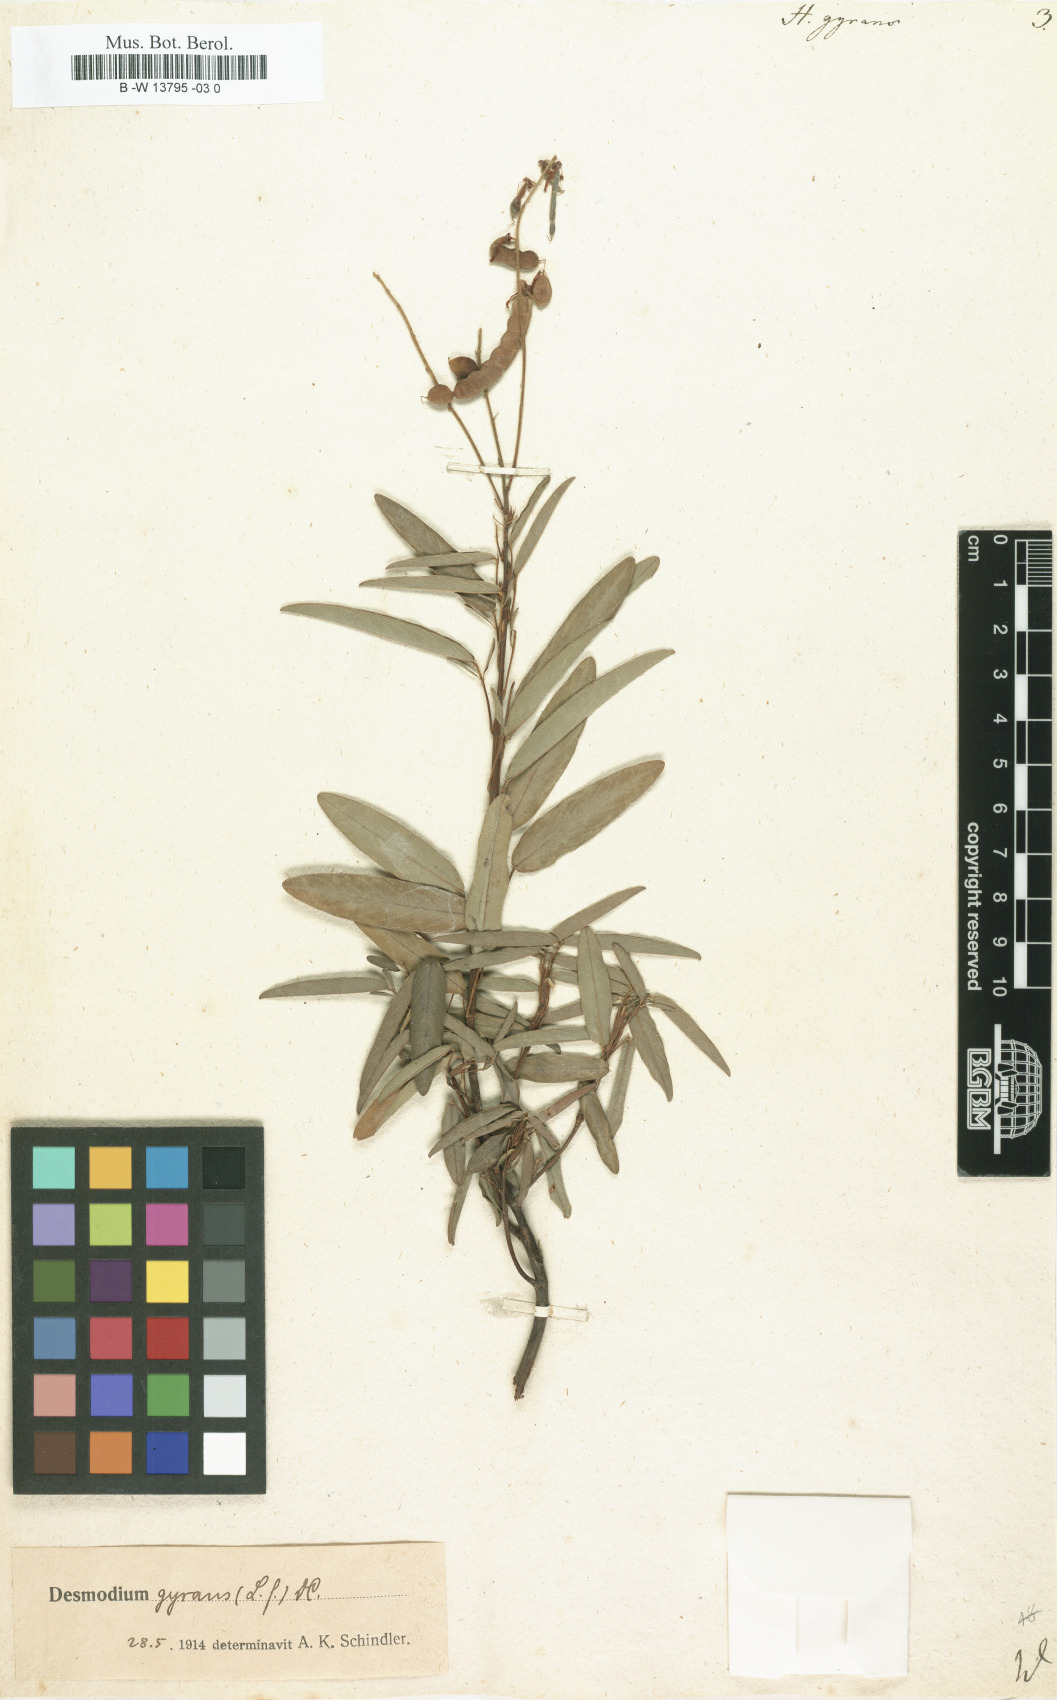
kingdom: Plantae
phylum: Tracheophyta
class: Magnoliopsida
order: Fabales
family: Fabaceae
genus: Codariocalyx
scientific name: Codariocalyx motorius
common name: Telegraph-plant
